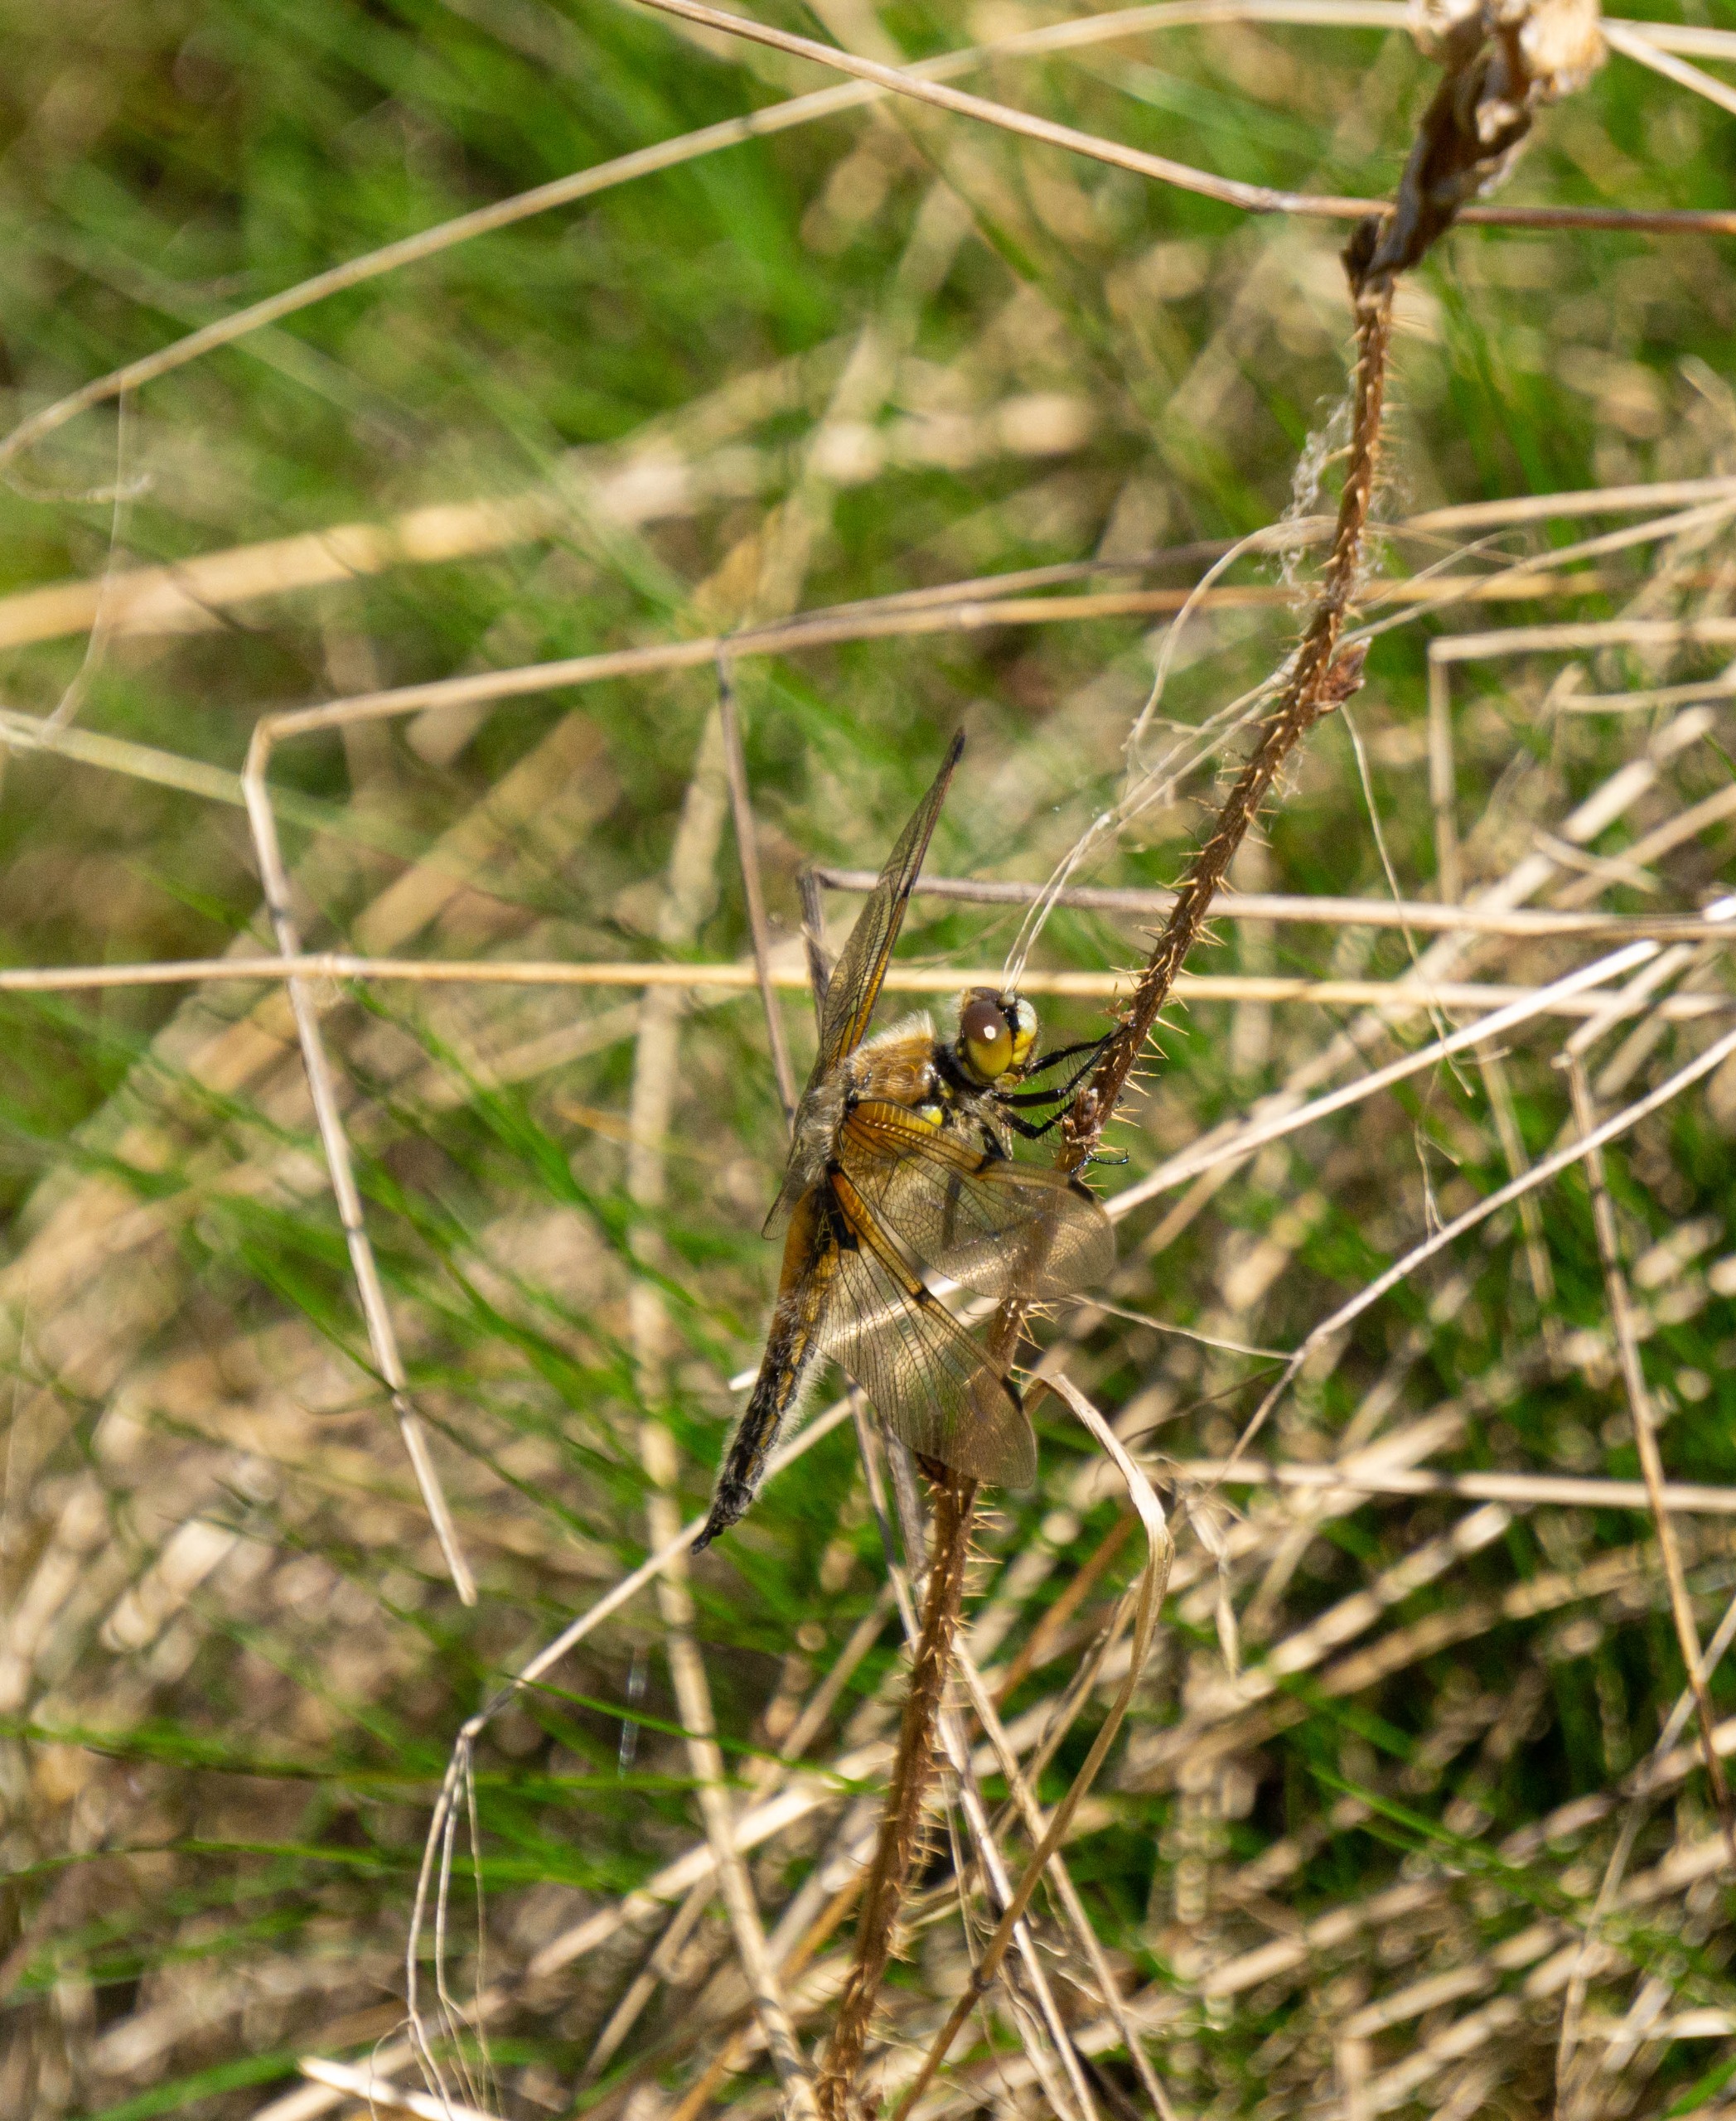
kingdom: Animalia
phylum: Arthropoda
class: Insecta
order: Odonata
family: Libellulidae
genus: Libellula
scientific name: Libellula quadrimaculata
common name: Fireplettet libel
